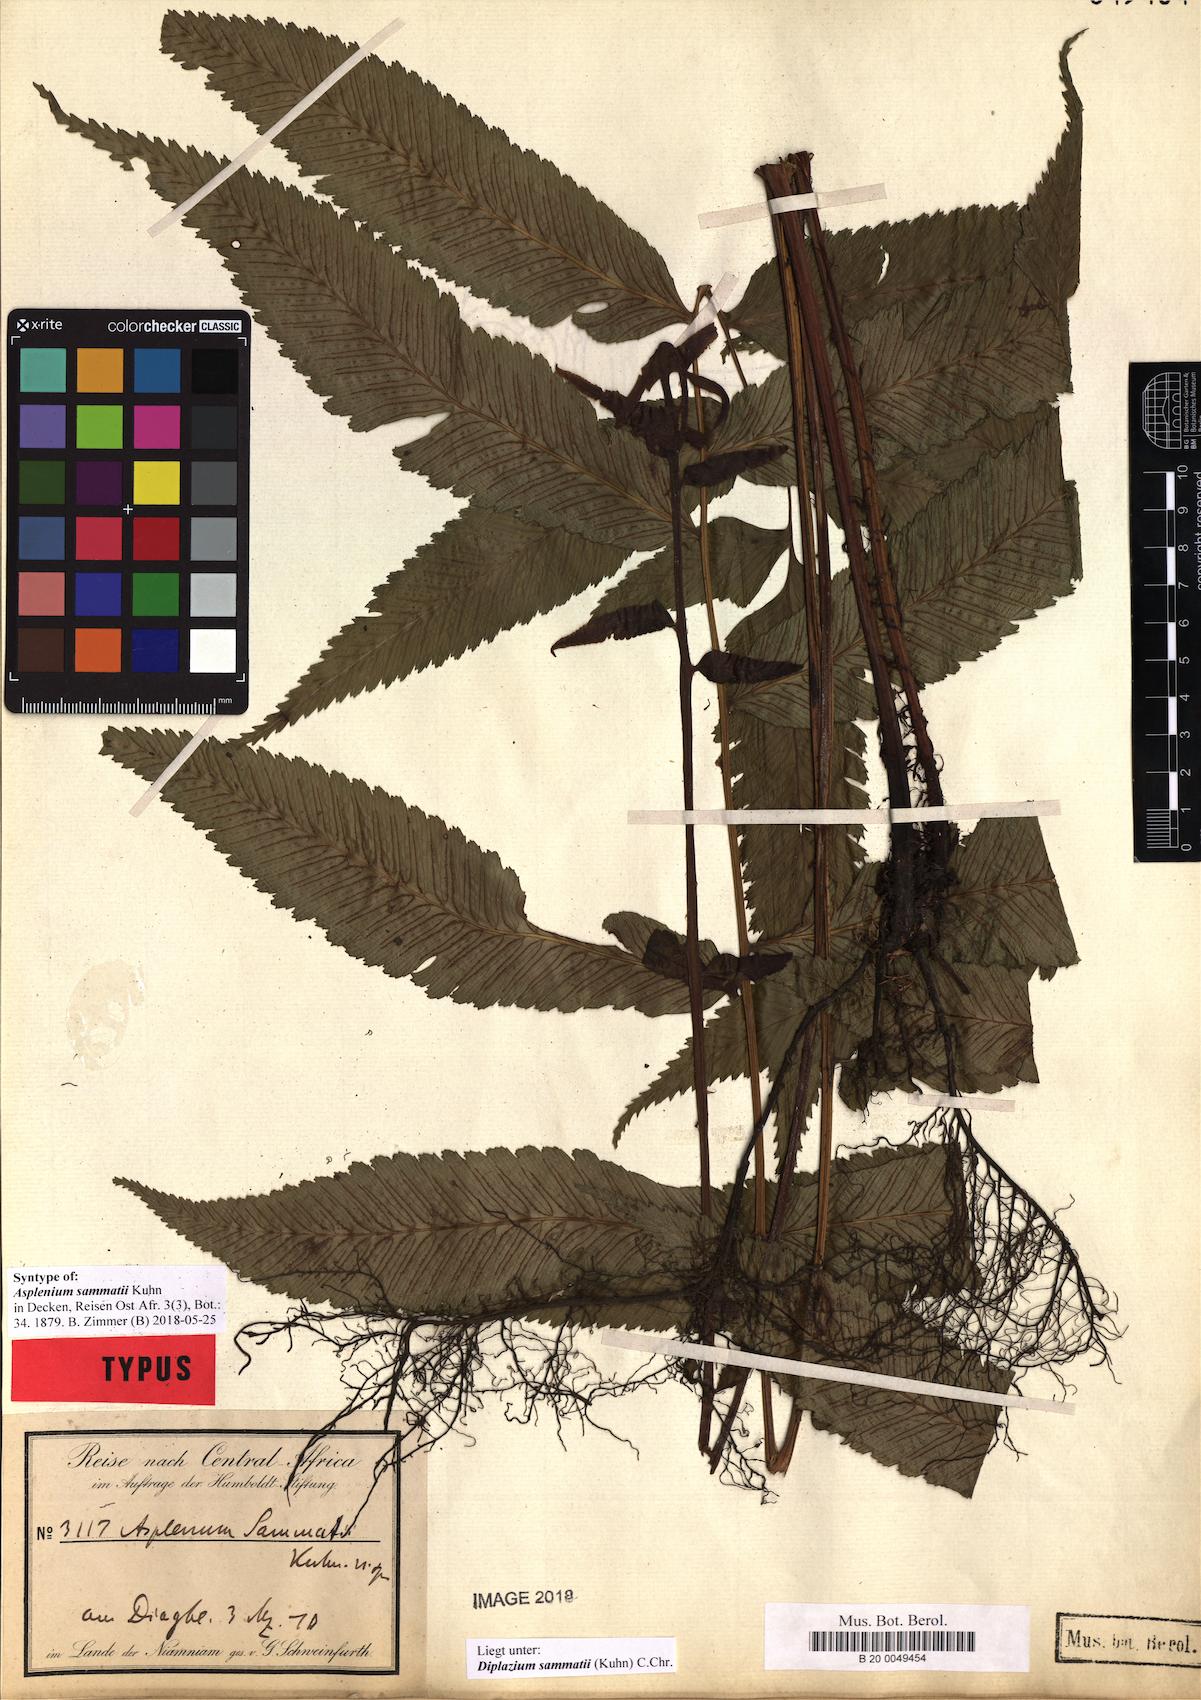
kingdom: Plantae
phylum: Tracheophyta
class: Polypodiopsida
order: Polypodiales
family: Athyriaceae
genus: Diplazium
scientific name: Diplazium sammatii
